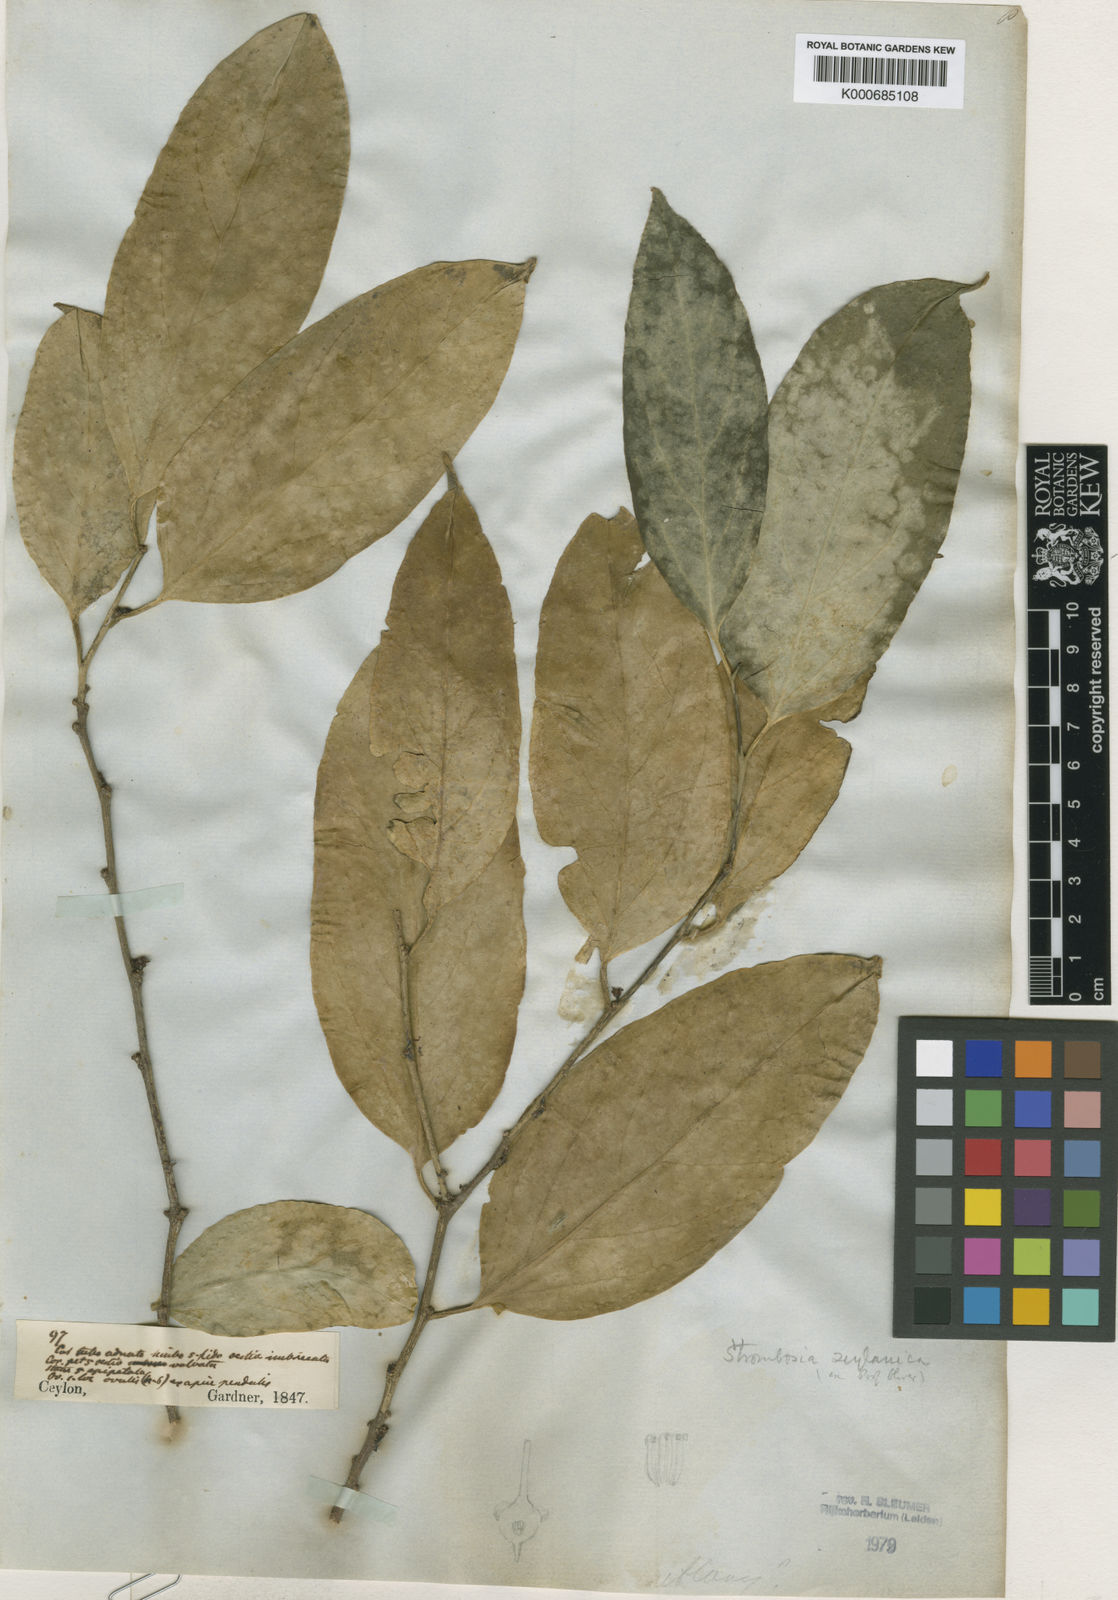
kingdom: Plantae
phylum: Tracheophyta
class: Magnoliopsida
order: Santalales
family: Strombosiaceae
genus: Strombosia
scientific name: Strombosia ceylanica
